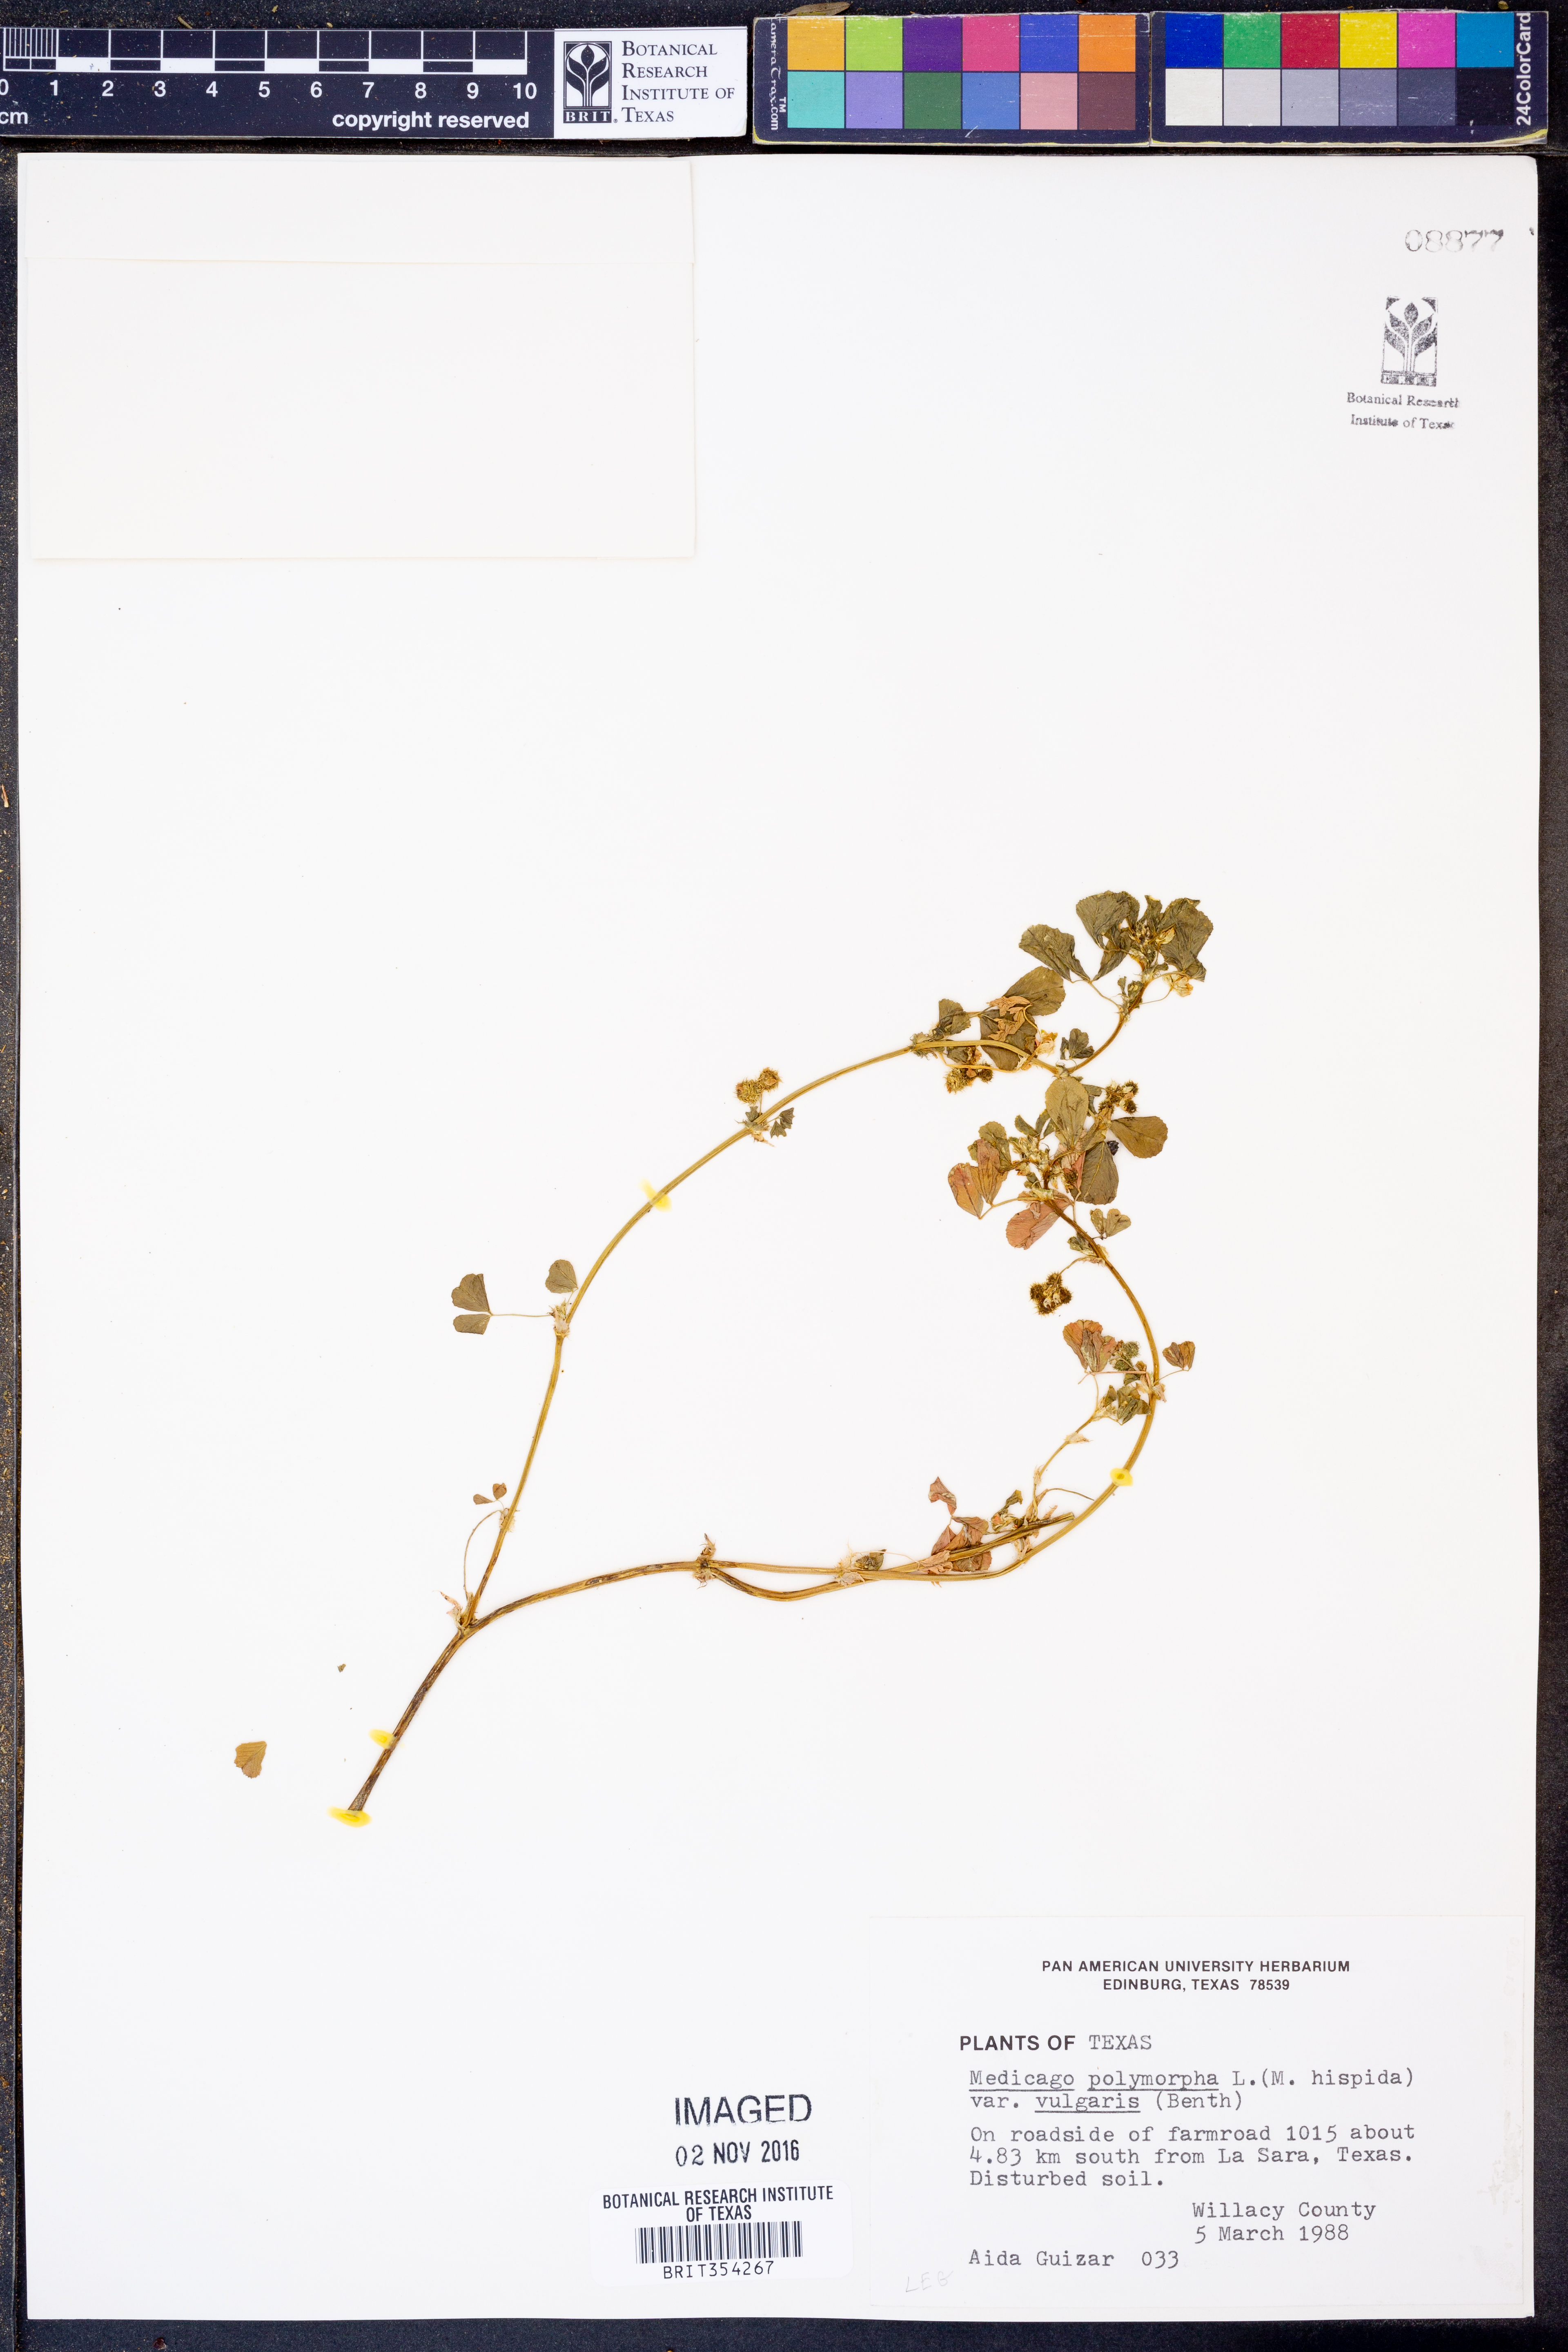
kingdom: Plantae
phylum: Tracheophyta
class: Magnoliopsida
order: Fabales
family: Fabaceae
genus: Medicago
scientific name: Medicago polymorpha
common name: Burclover
